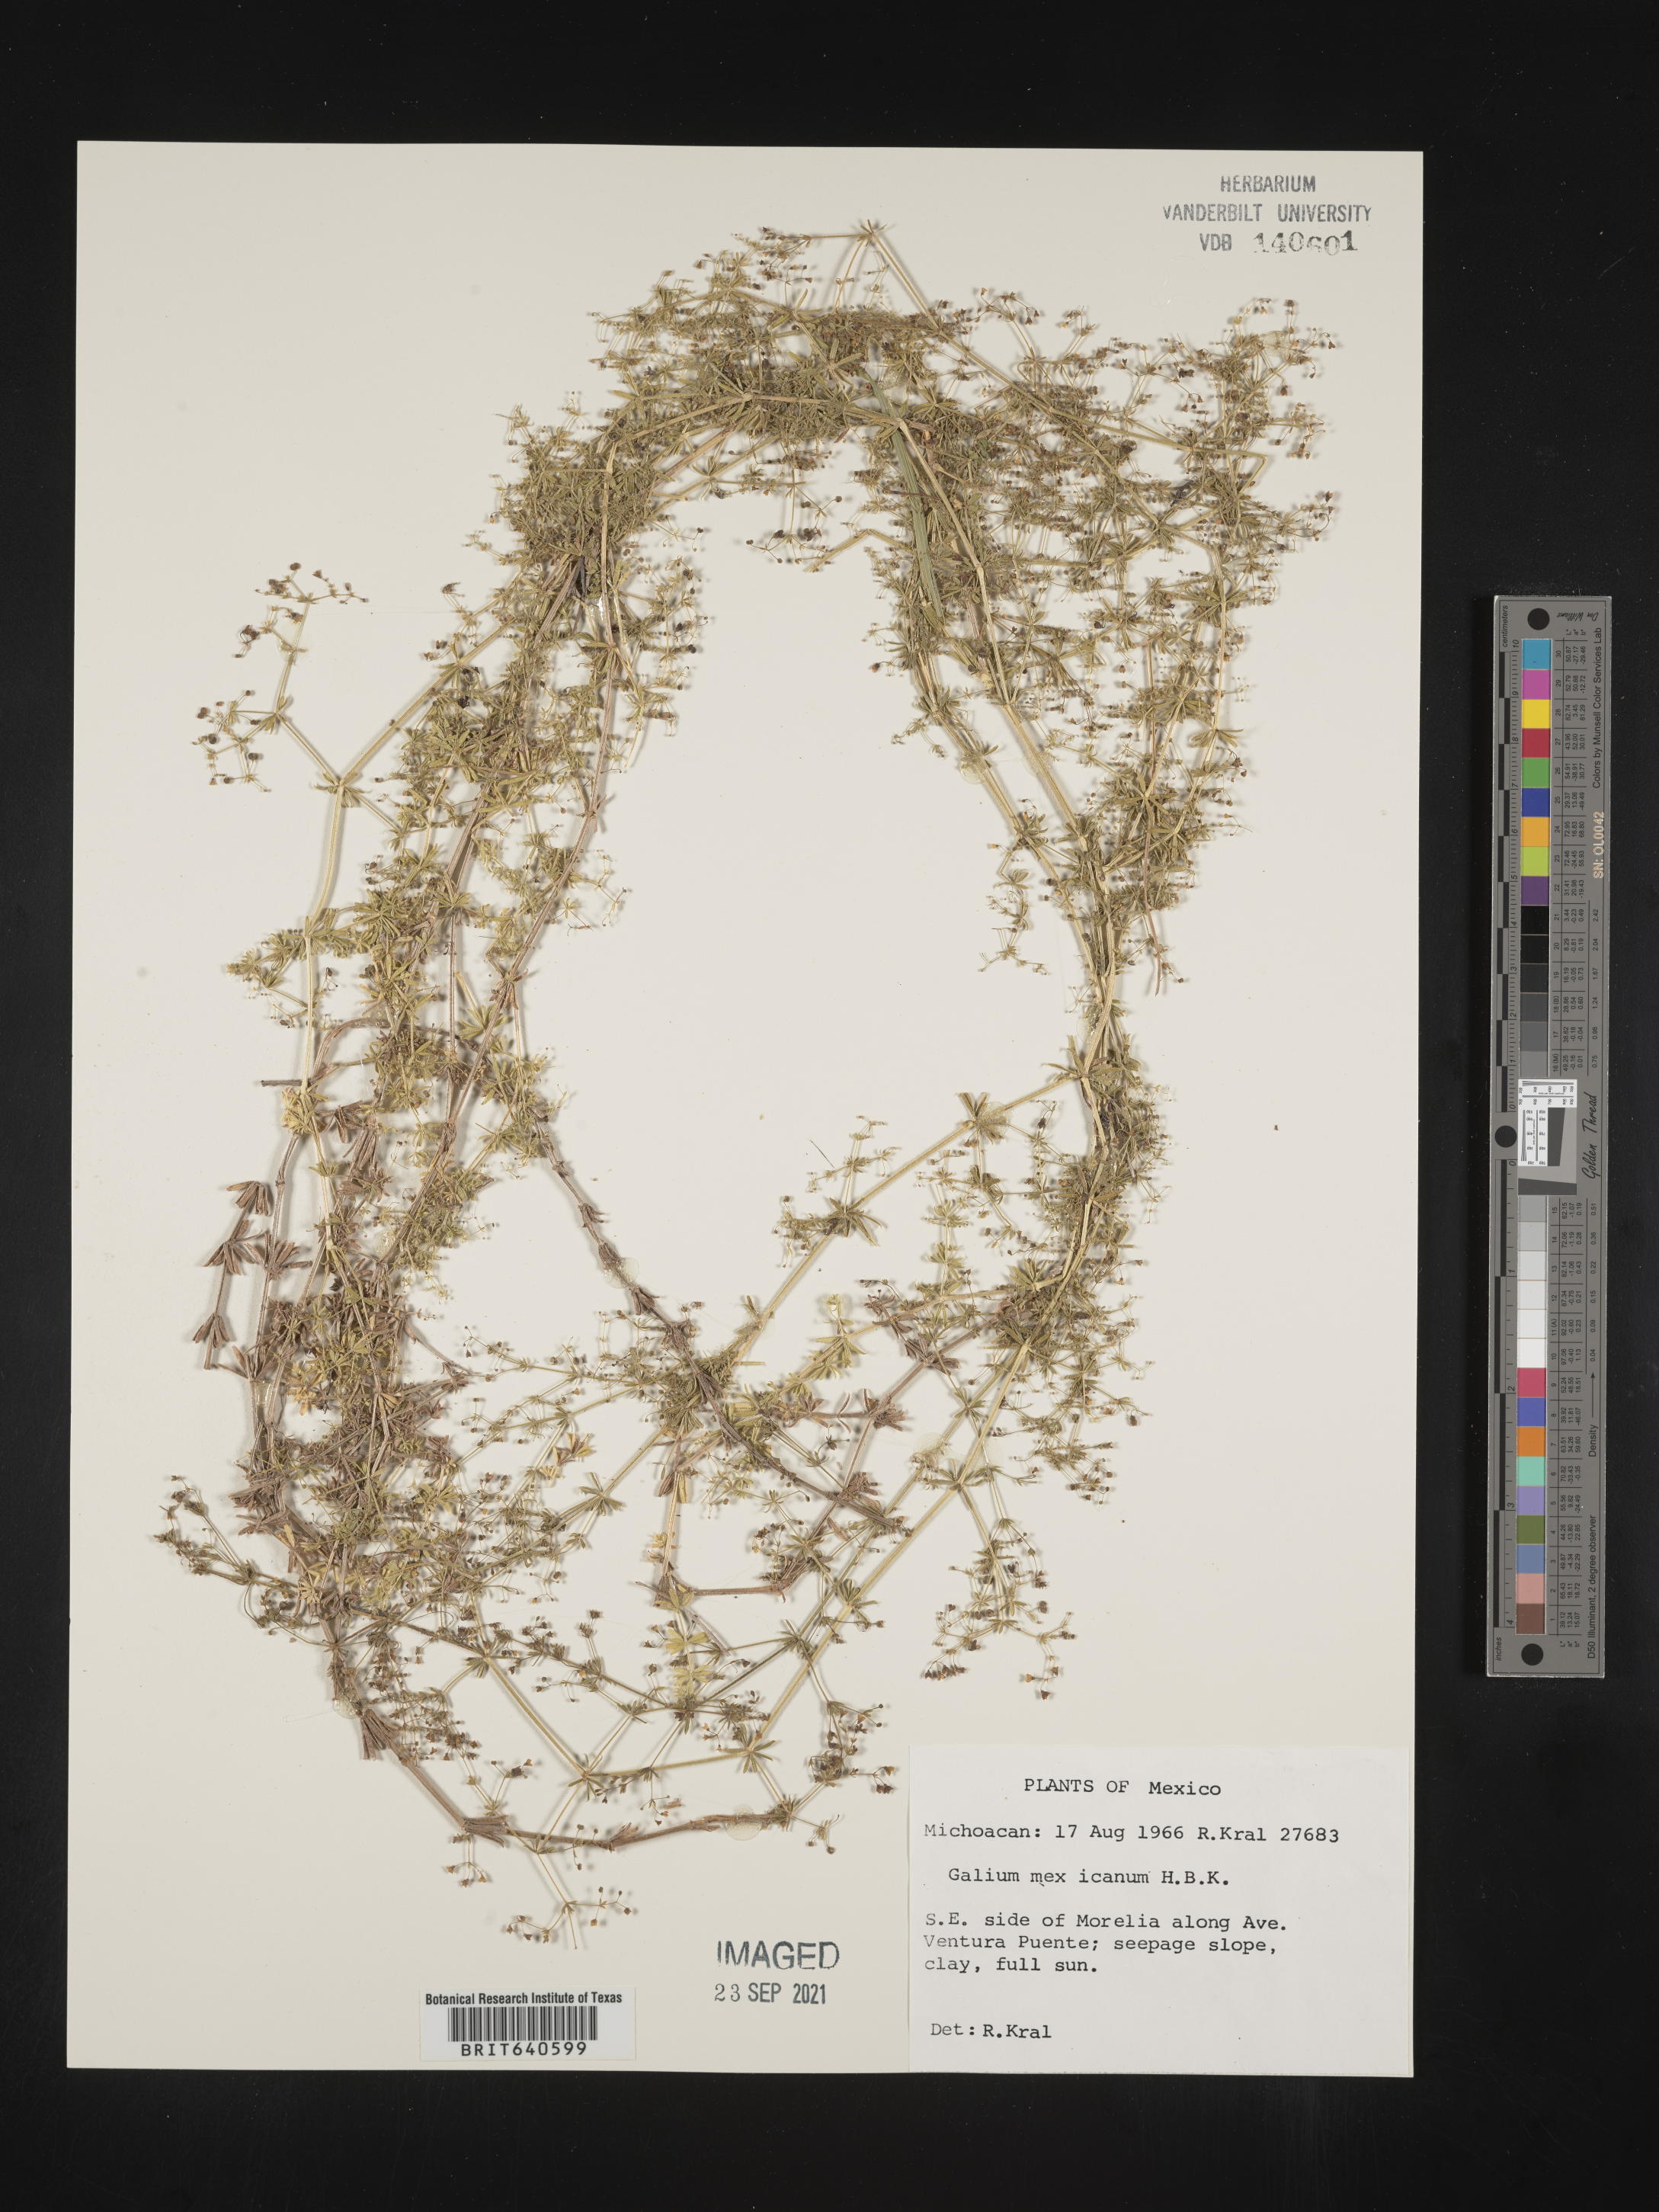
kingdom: Plantae
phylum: Tracheophyta
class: Magnoliopsida
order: Gentianales
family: Rubiaceae
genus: Galium
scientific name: Galium
